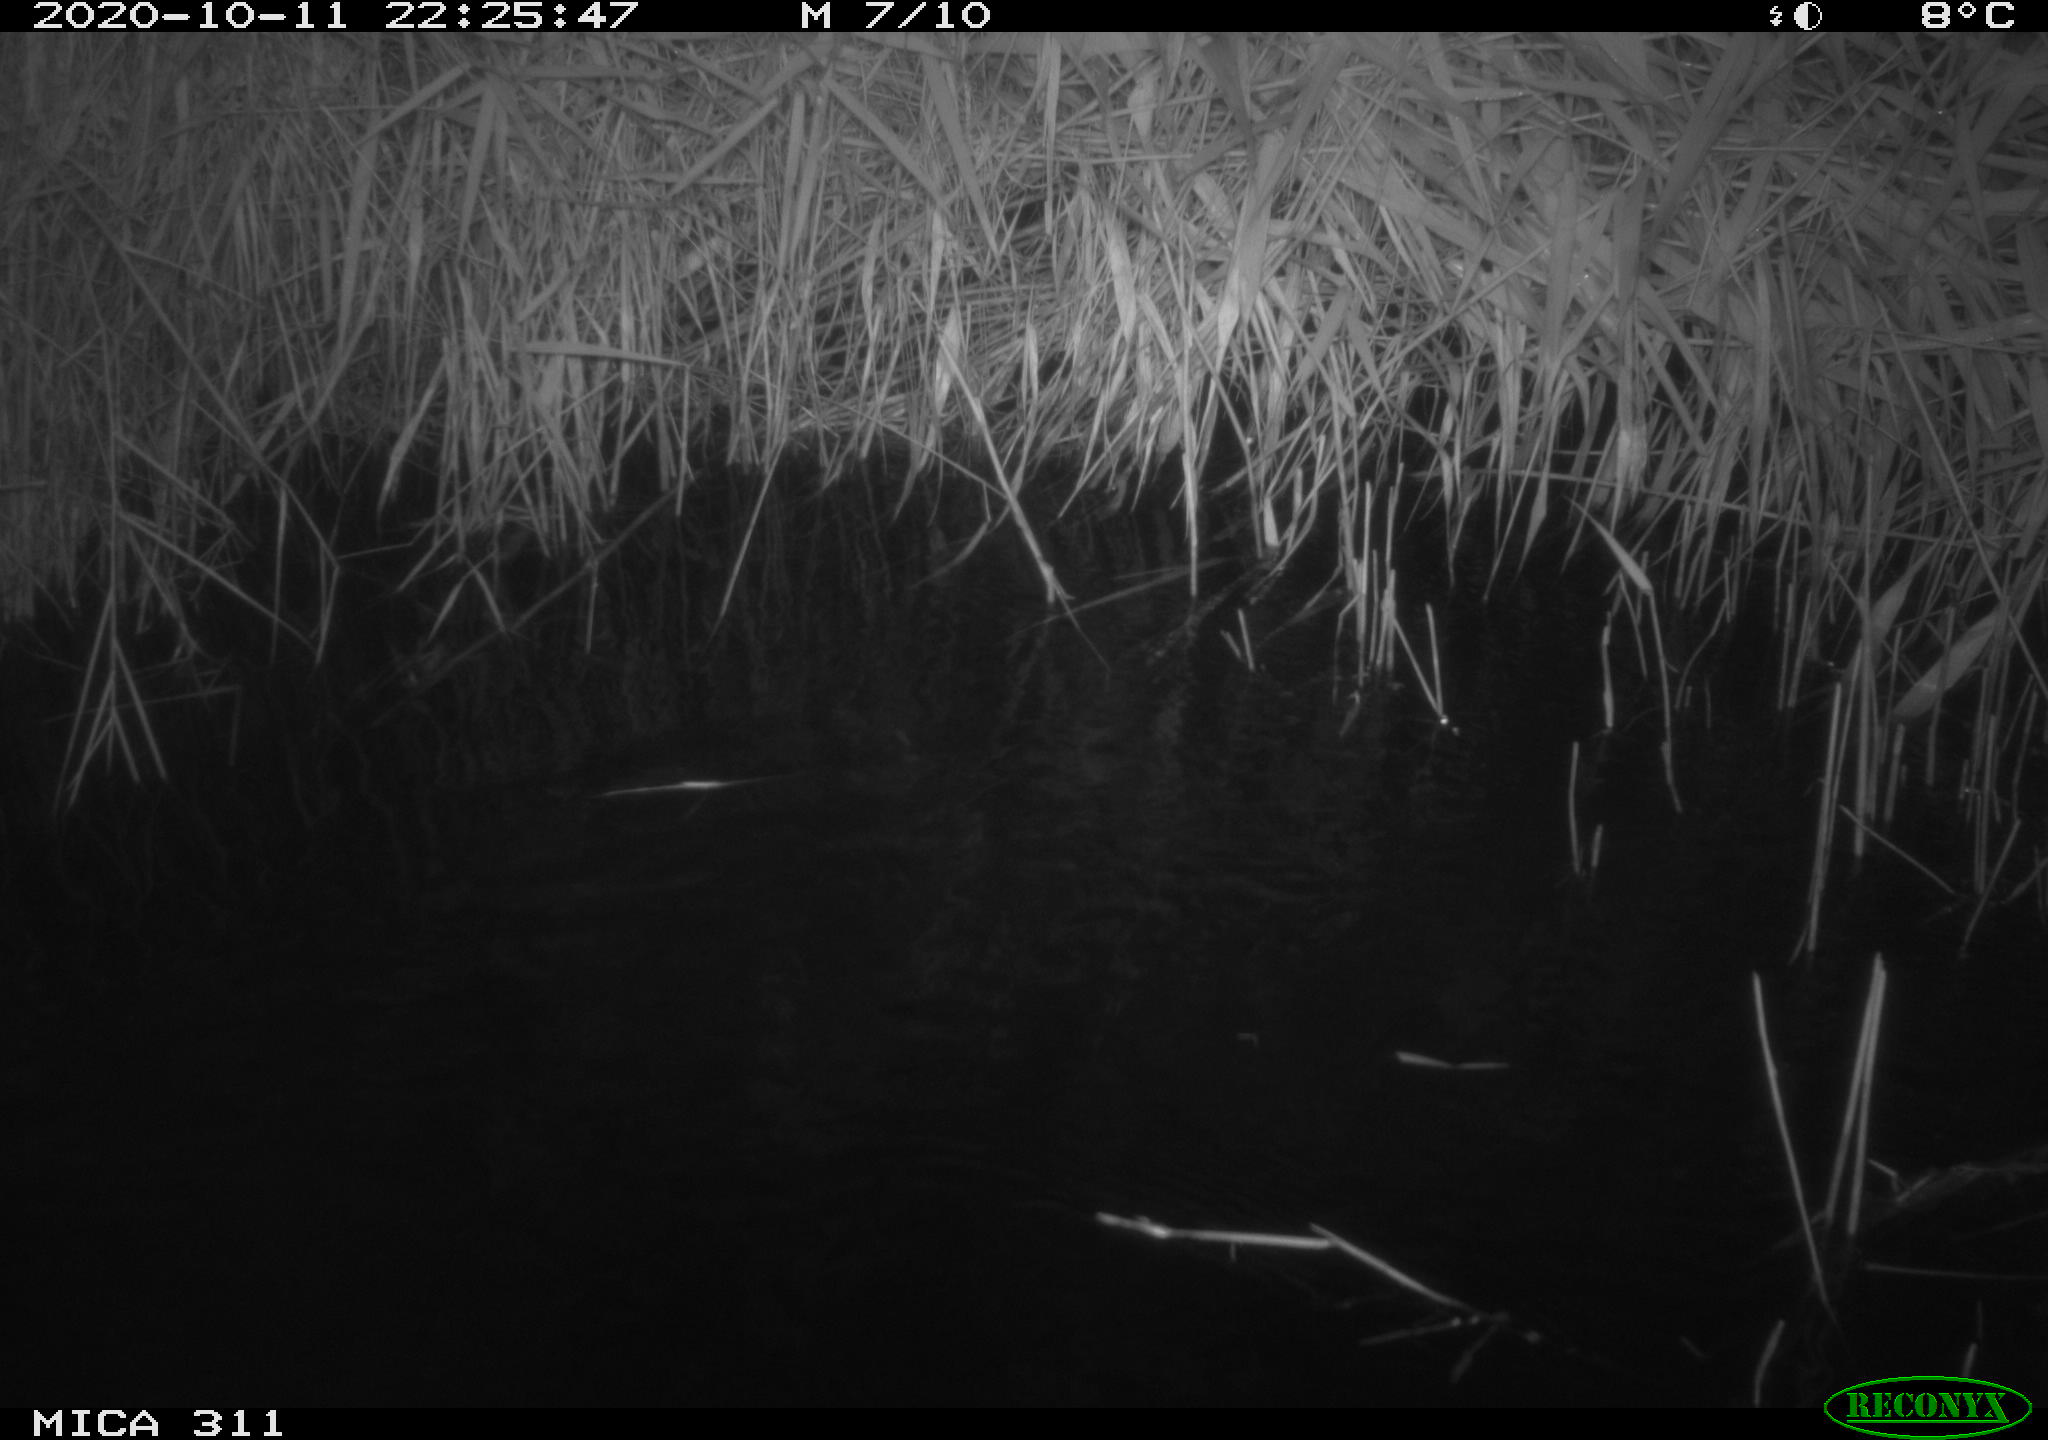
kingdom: Animalia
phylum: Chordata
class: Mammalia
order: Rodentia
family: Cricetidae
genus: Ondatra
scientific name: Ondatra zibethicus
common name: Muskrat
